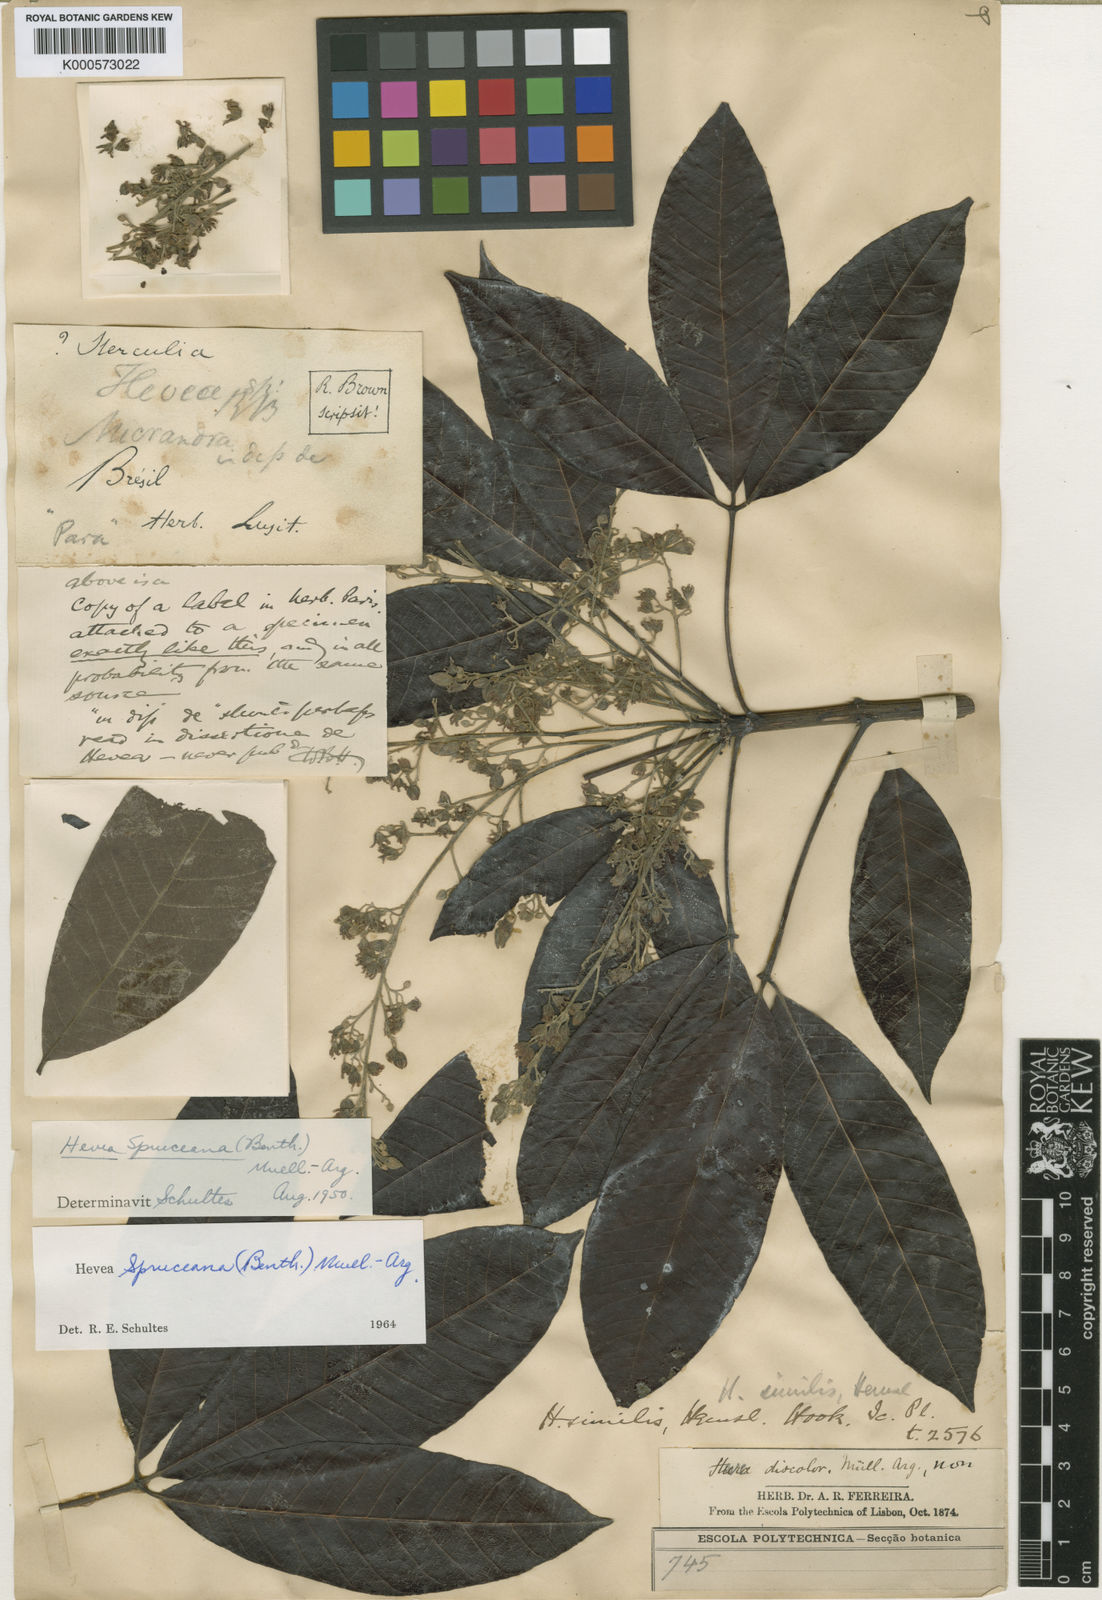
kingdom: Plantae
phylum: Tracheophyta
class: Magnoliopsida
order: Malpighiales
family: Euphorbiaceae
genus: Hevea
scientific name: Hevea spruceana
